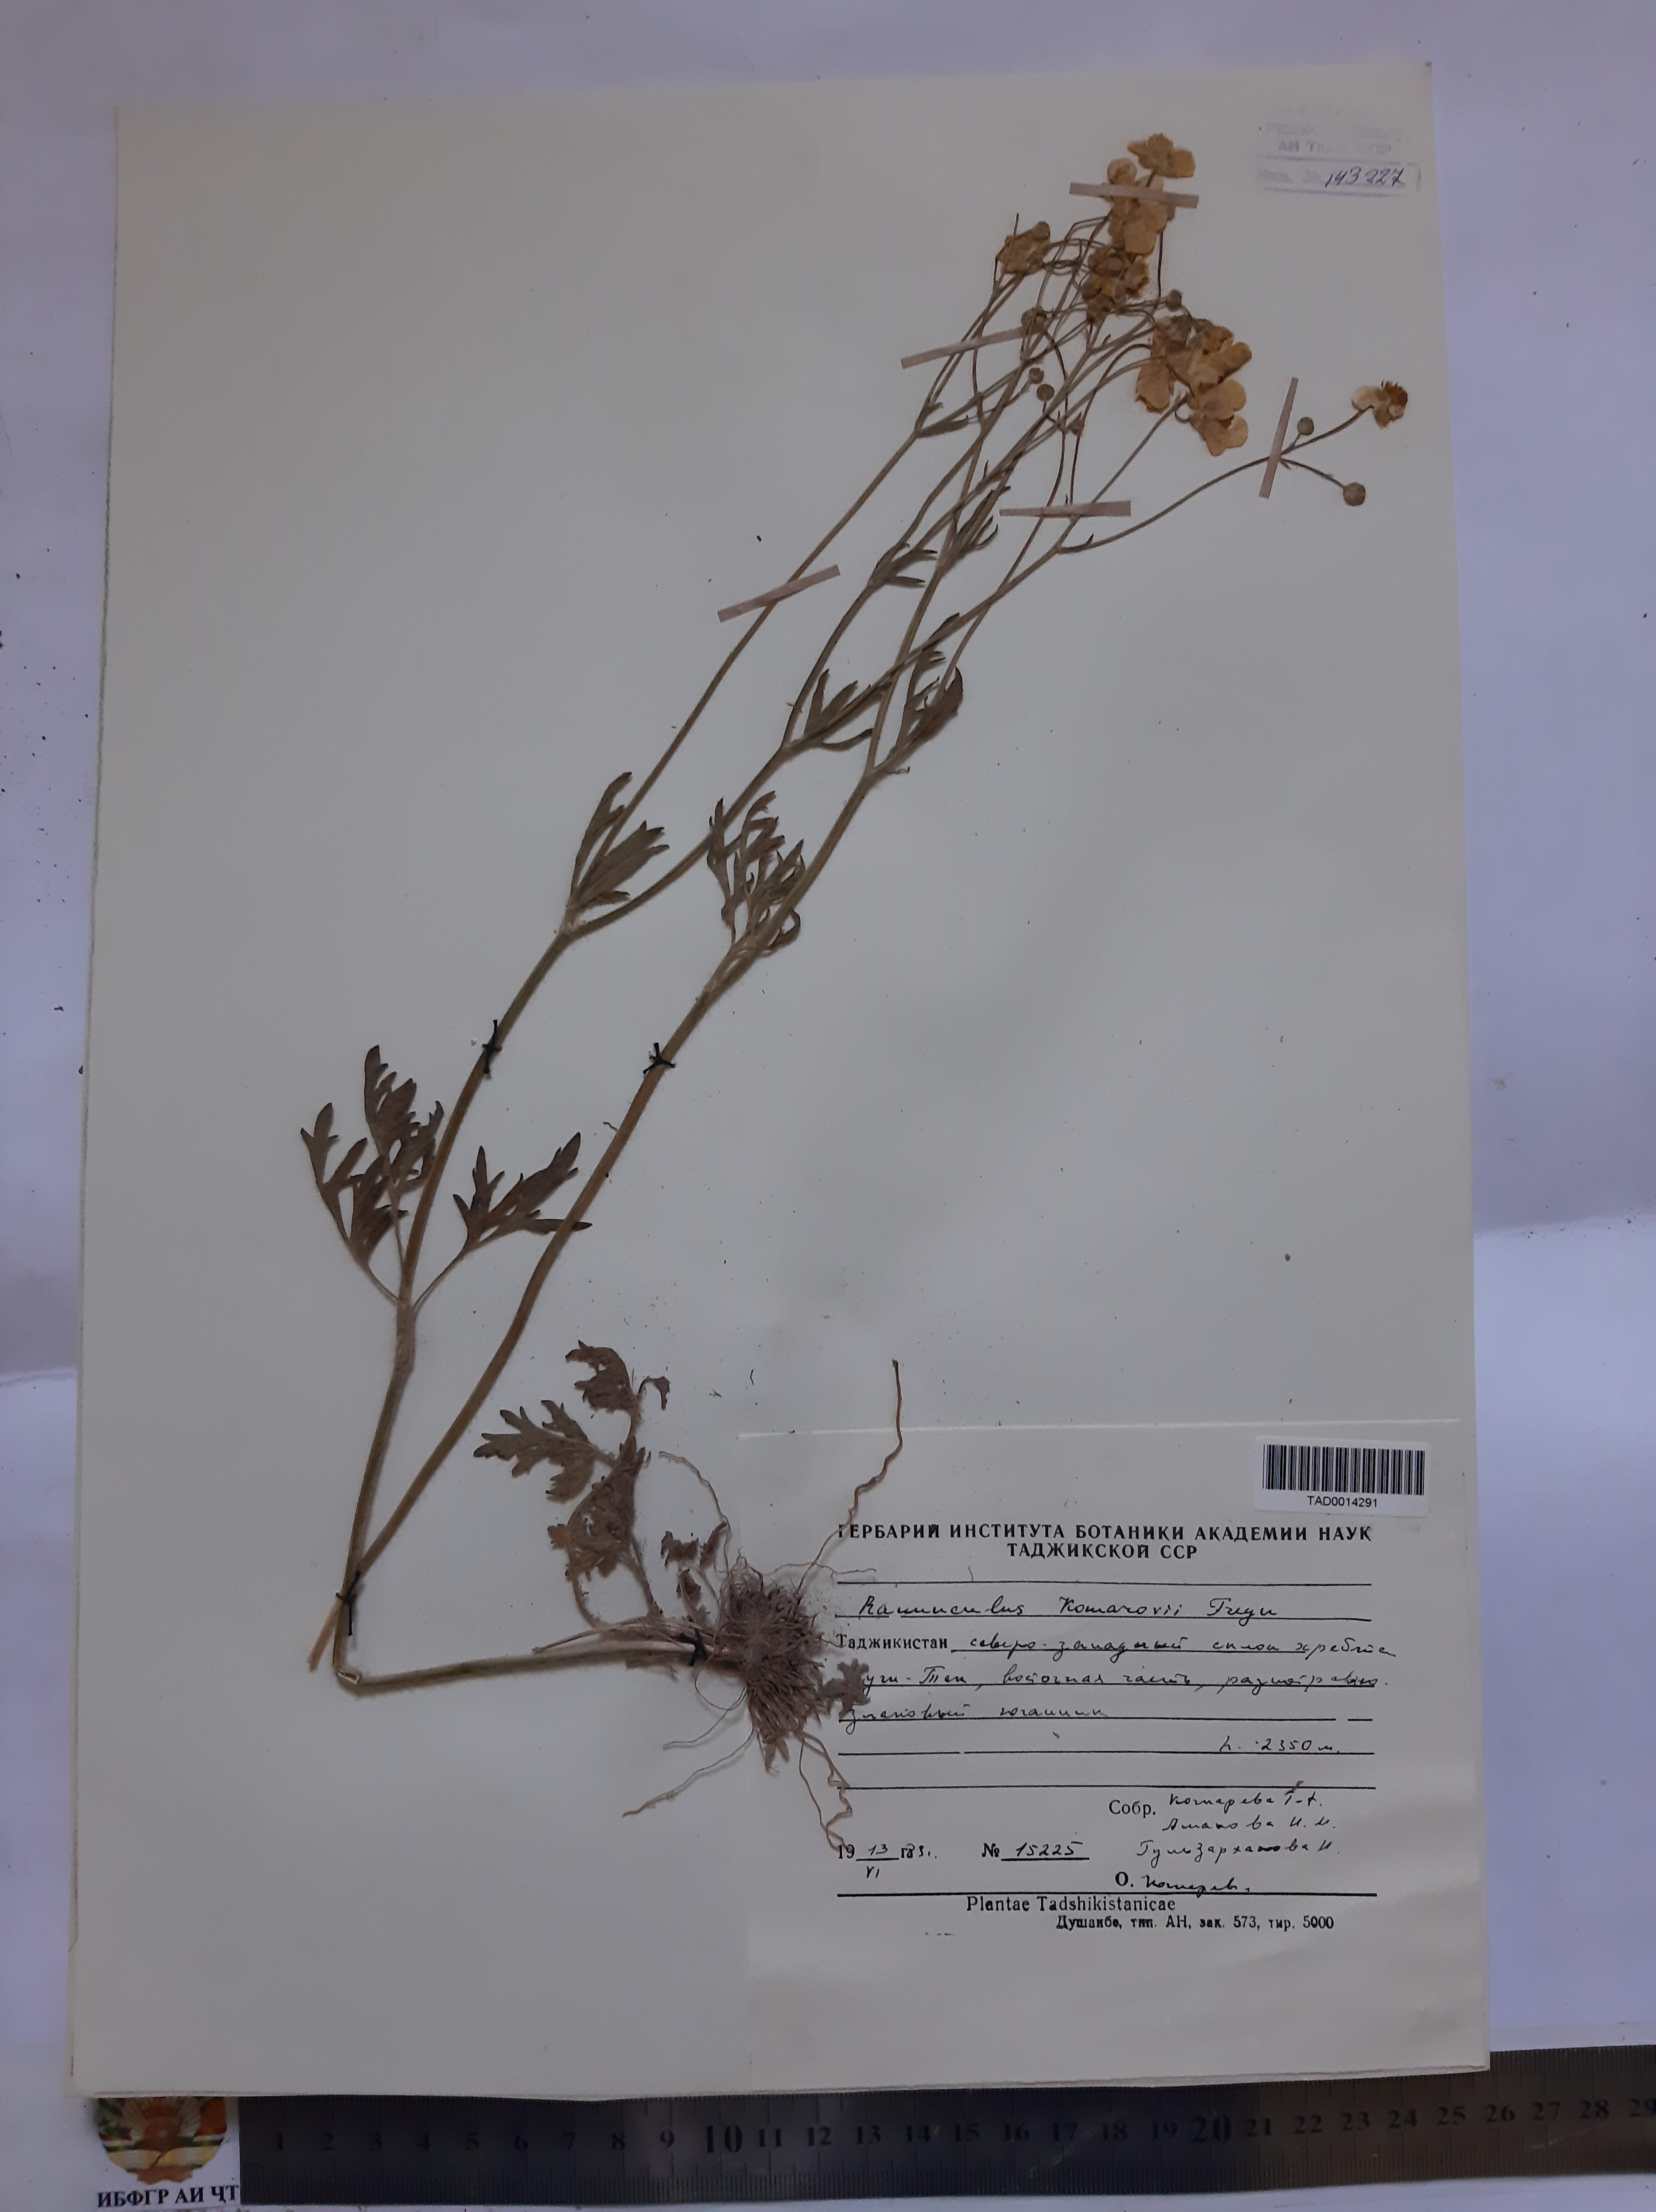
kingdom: Plantae
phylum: Tracheophyta
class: Magnoliopsida
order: Ranunculales
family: Ranunculaceae
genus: Ranunculus
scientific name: Ranunculus komarovii
